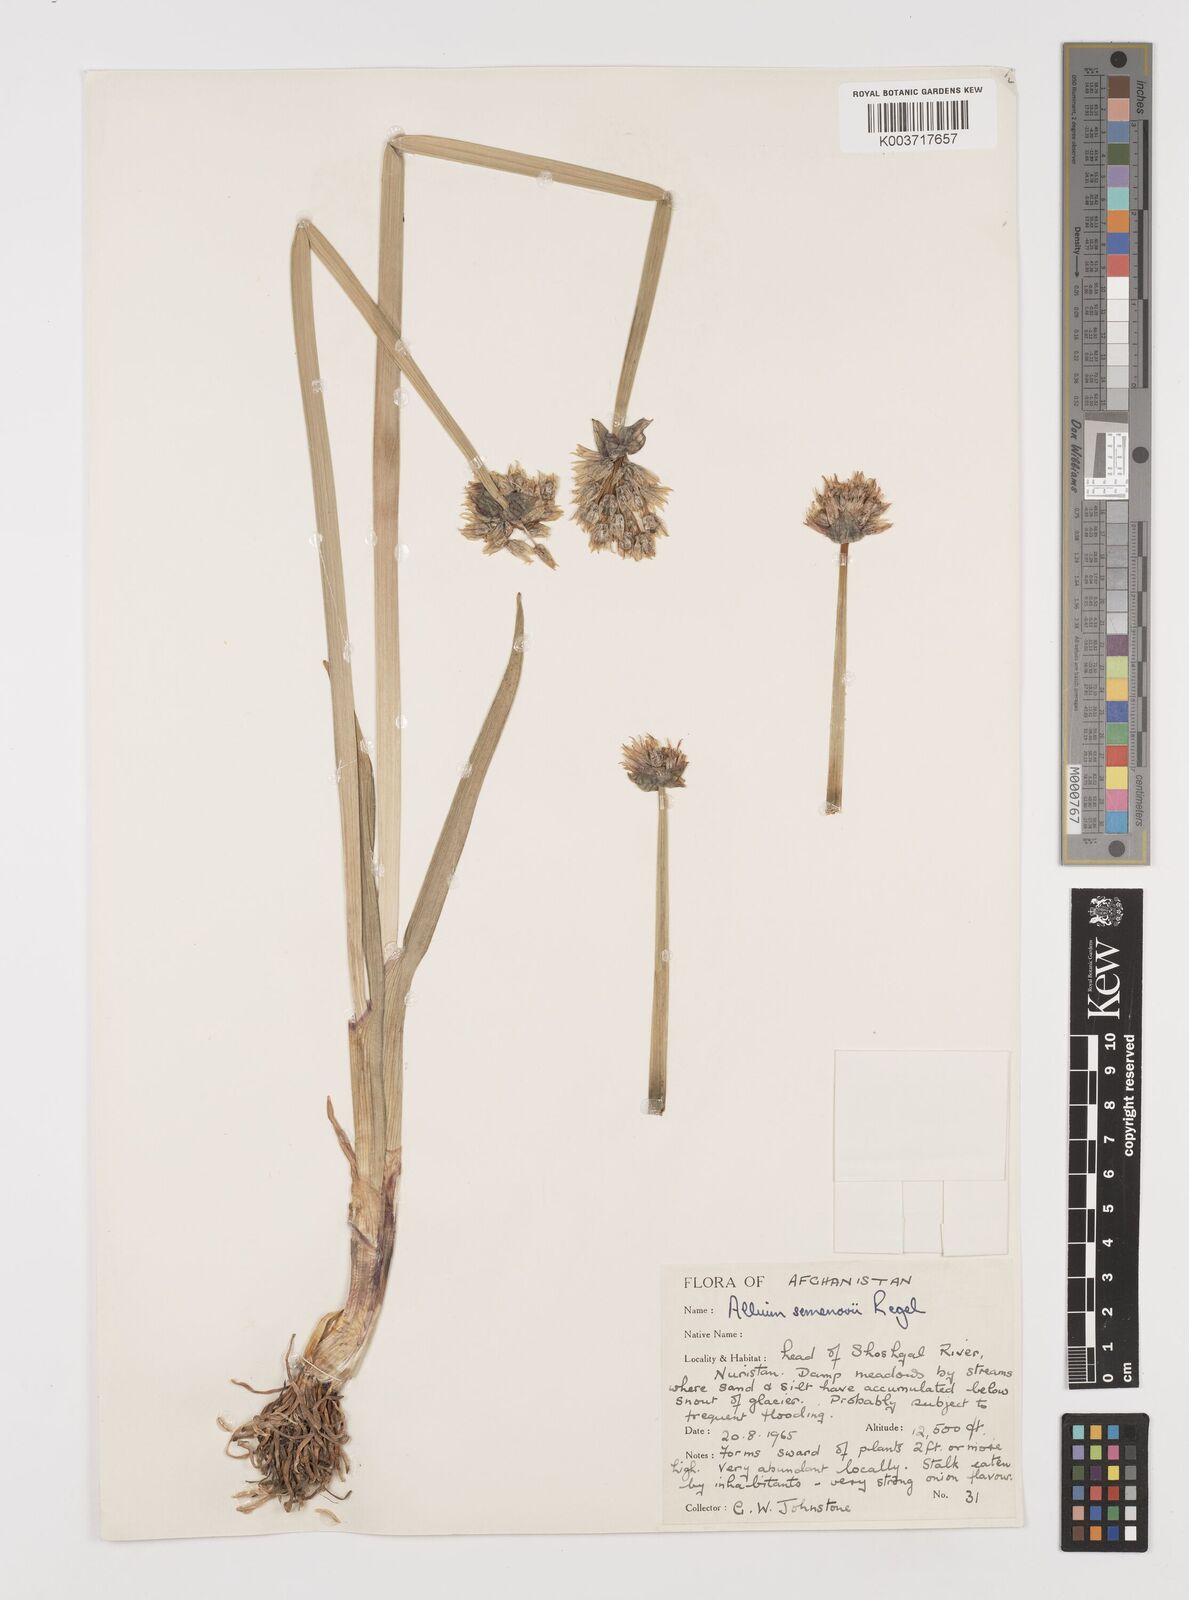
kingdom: Plantae
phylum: Tracheophyta
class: Liliopsida
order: Asparagales
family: Amaryllidaceae
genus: Allium
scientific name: Allium atrosanguineum
